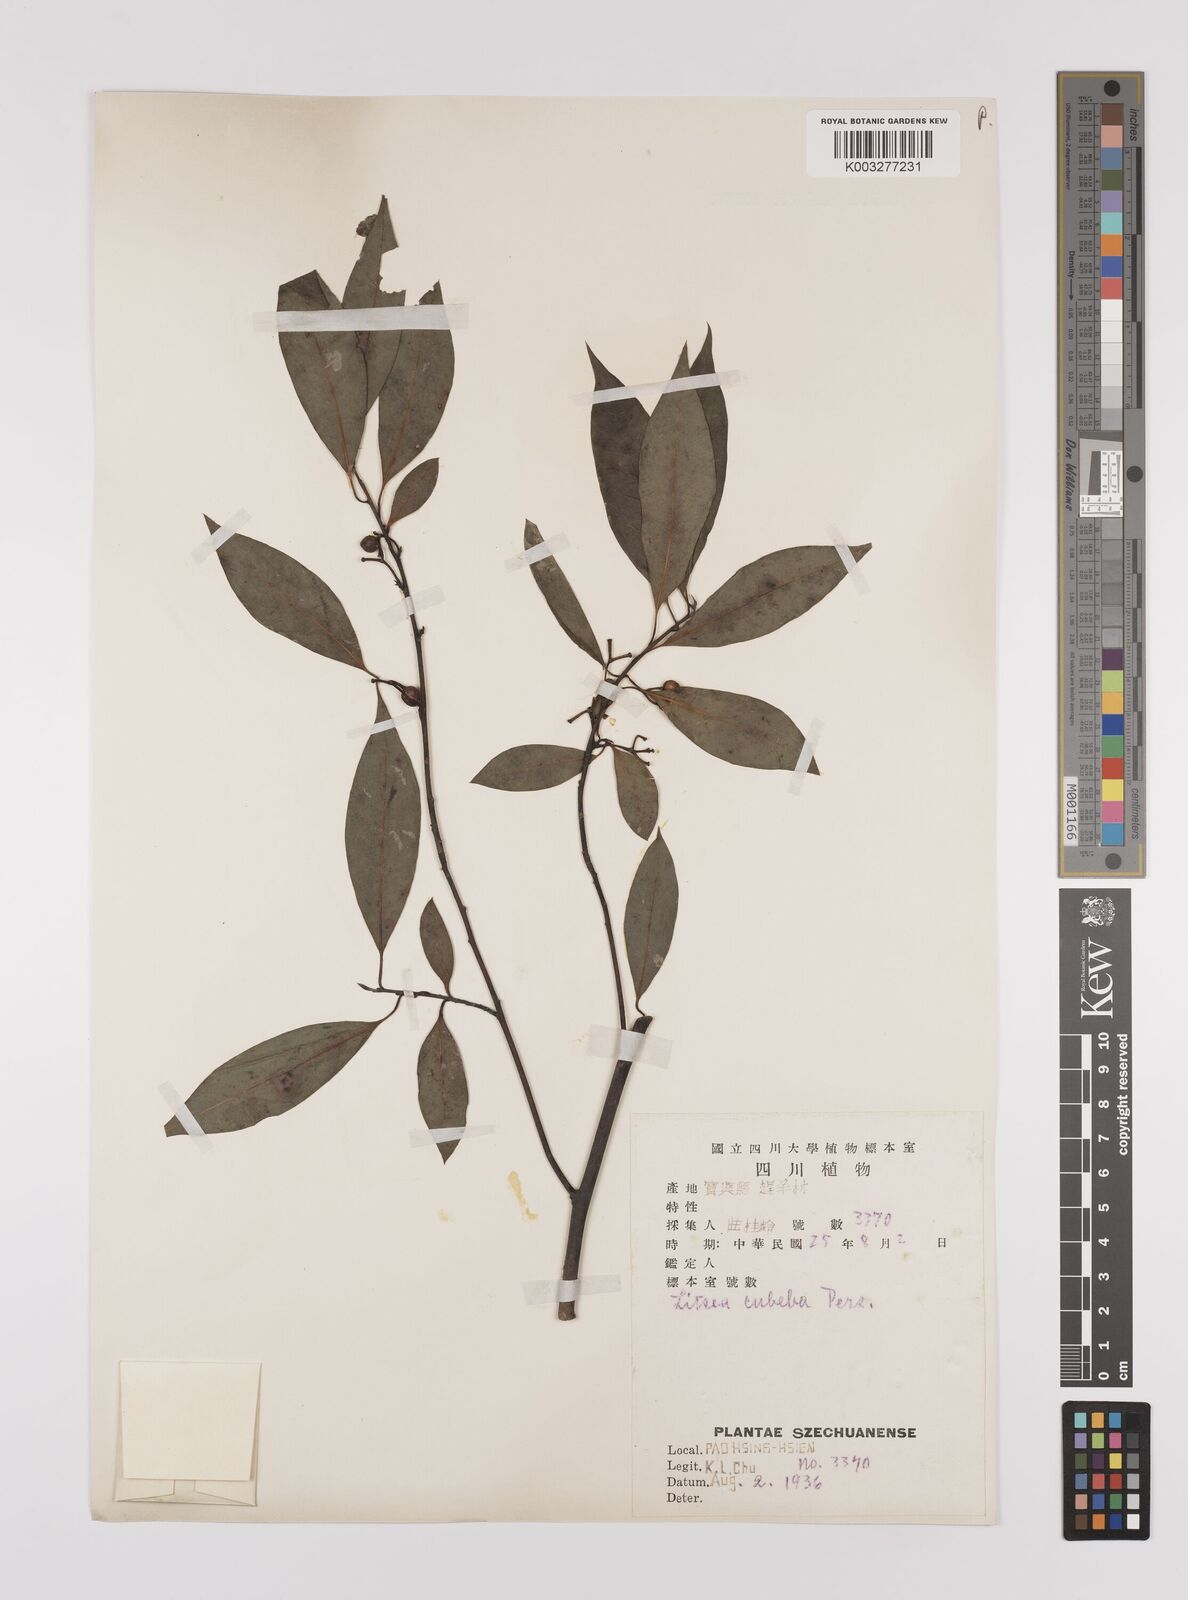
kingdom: Plantae
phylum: Tracheophyta
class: Magnoliopsida
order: Laurales
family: Lauraceae
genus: Litsea
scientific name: Litsea cubeba
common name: Mountain-pepper
